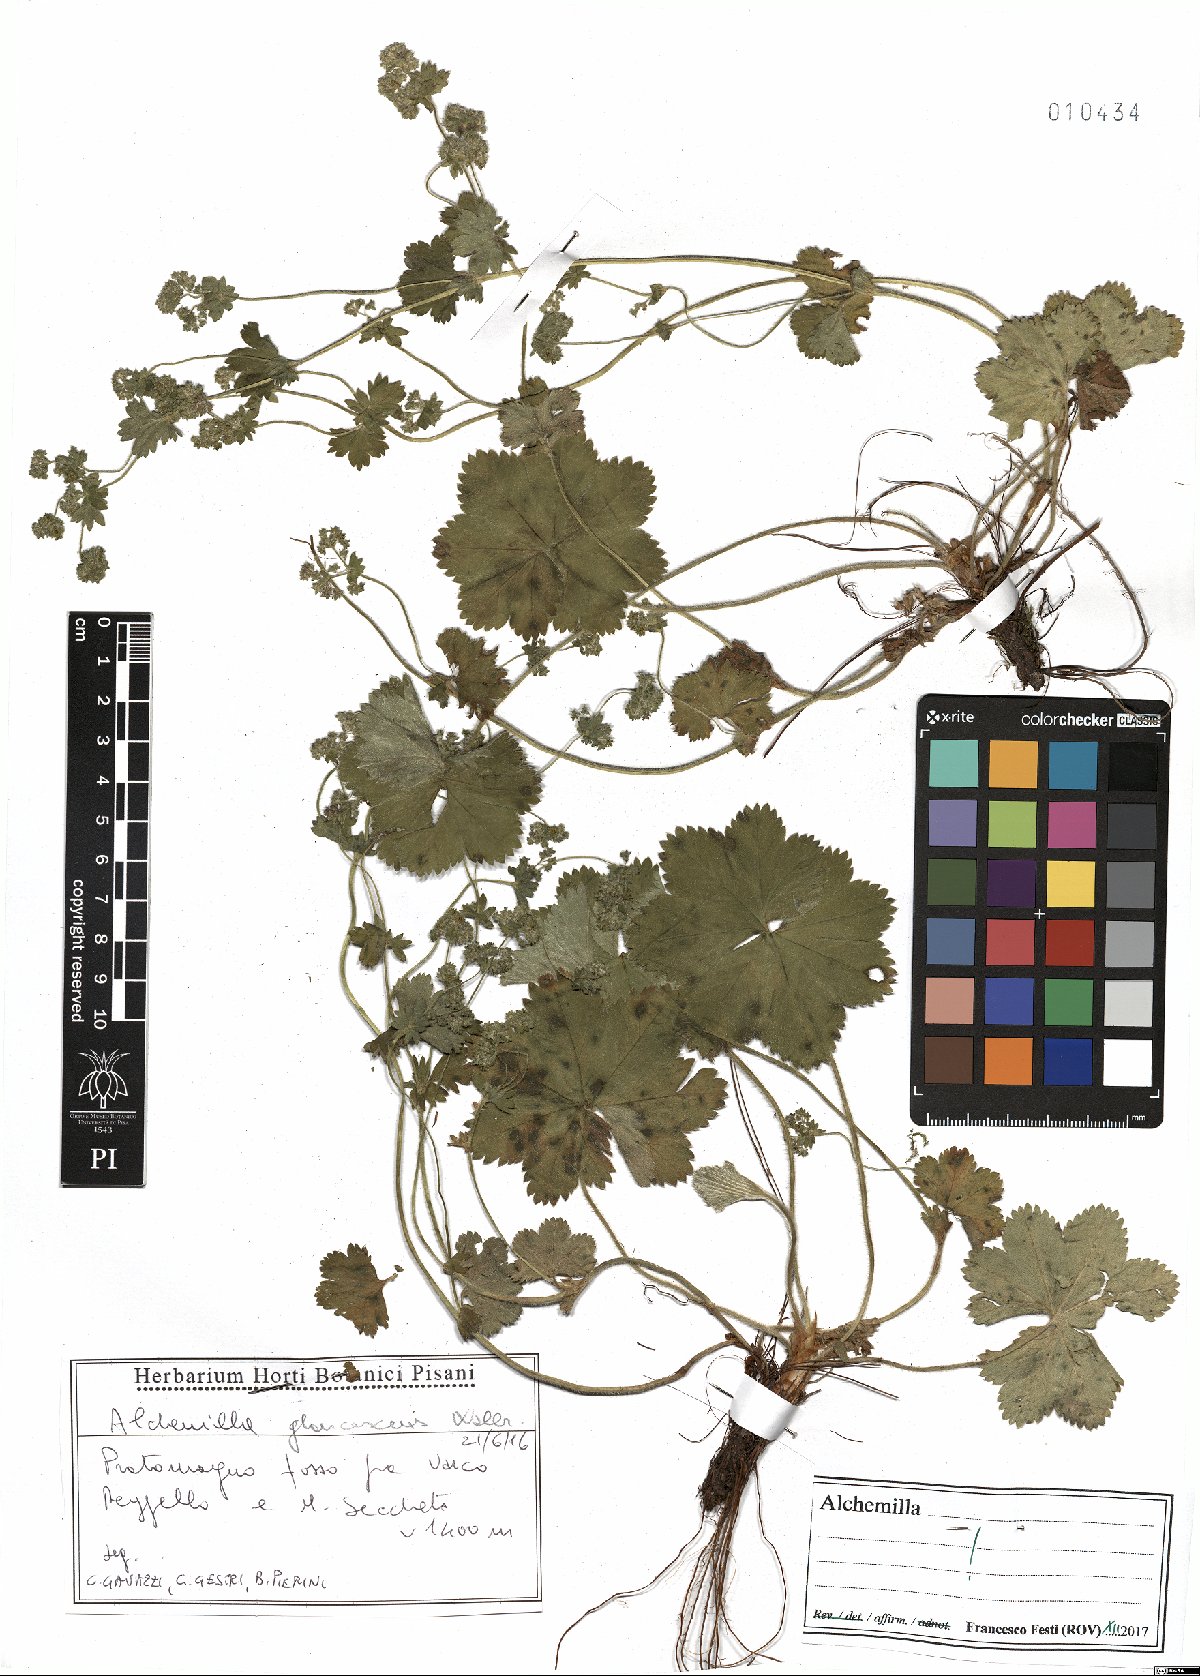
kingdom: Plantae
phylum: Tracheophyta
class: Magnoliopsida
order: Rosales
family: Rosaceae
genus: Alchemilla
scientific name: Alchemilla glaucescens
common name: Silky lady's mantle
